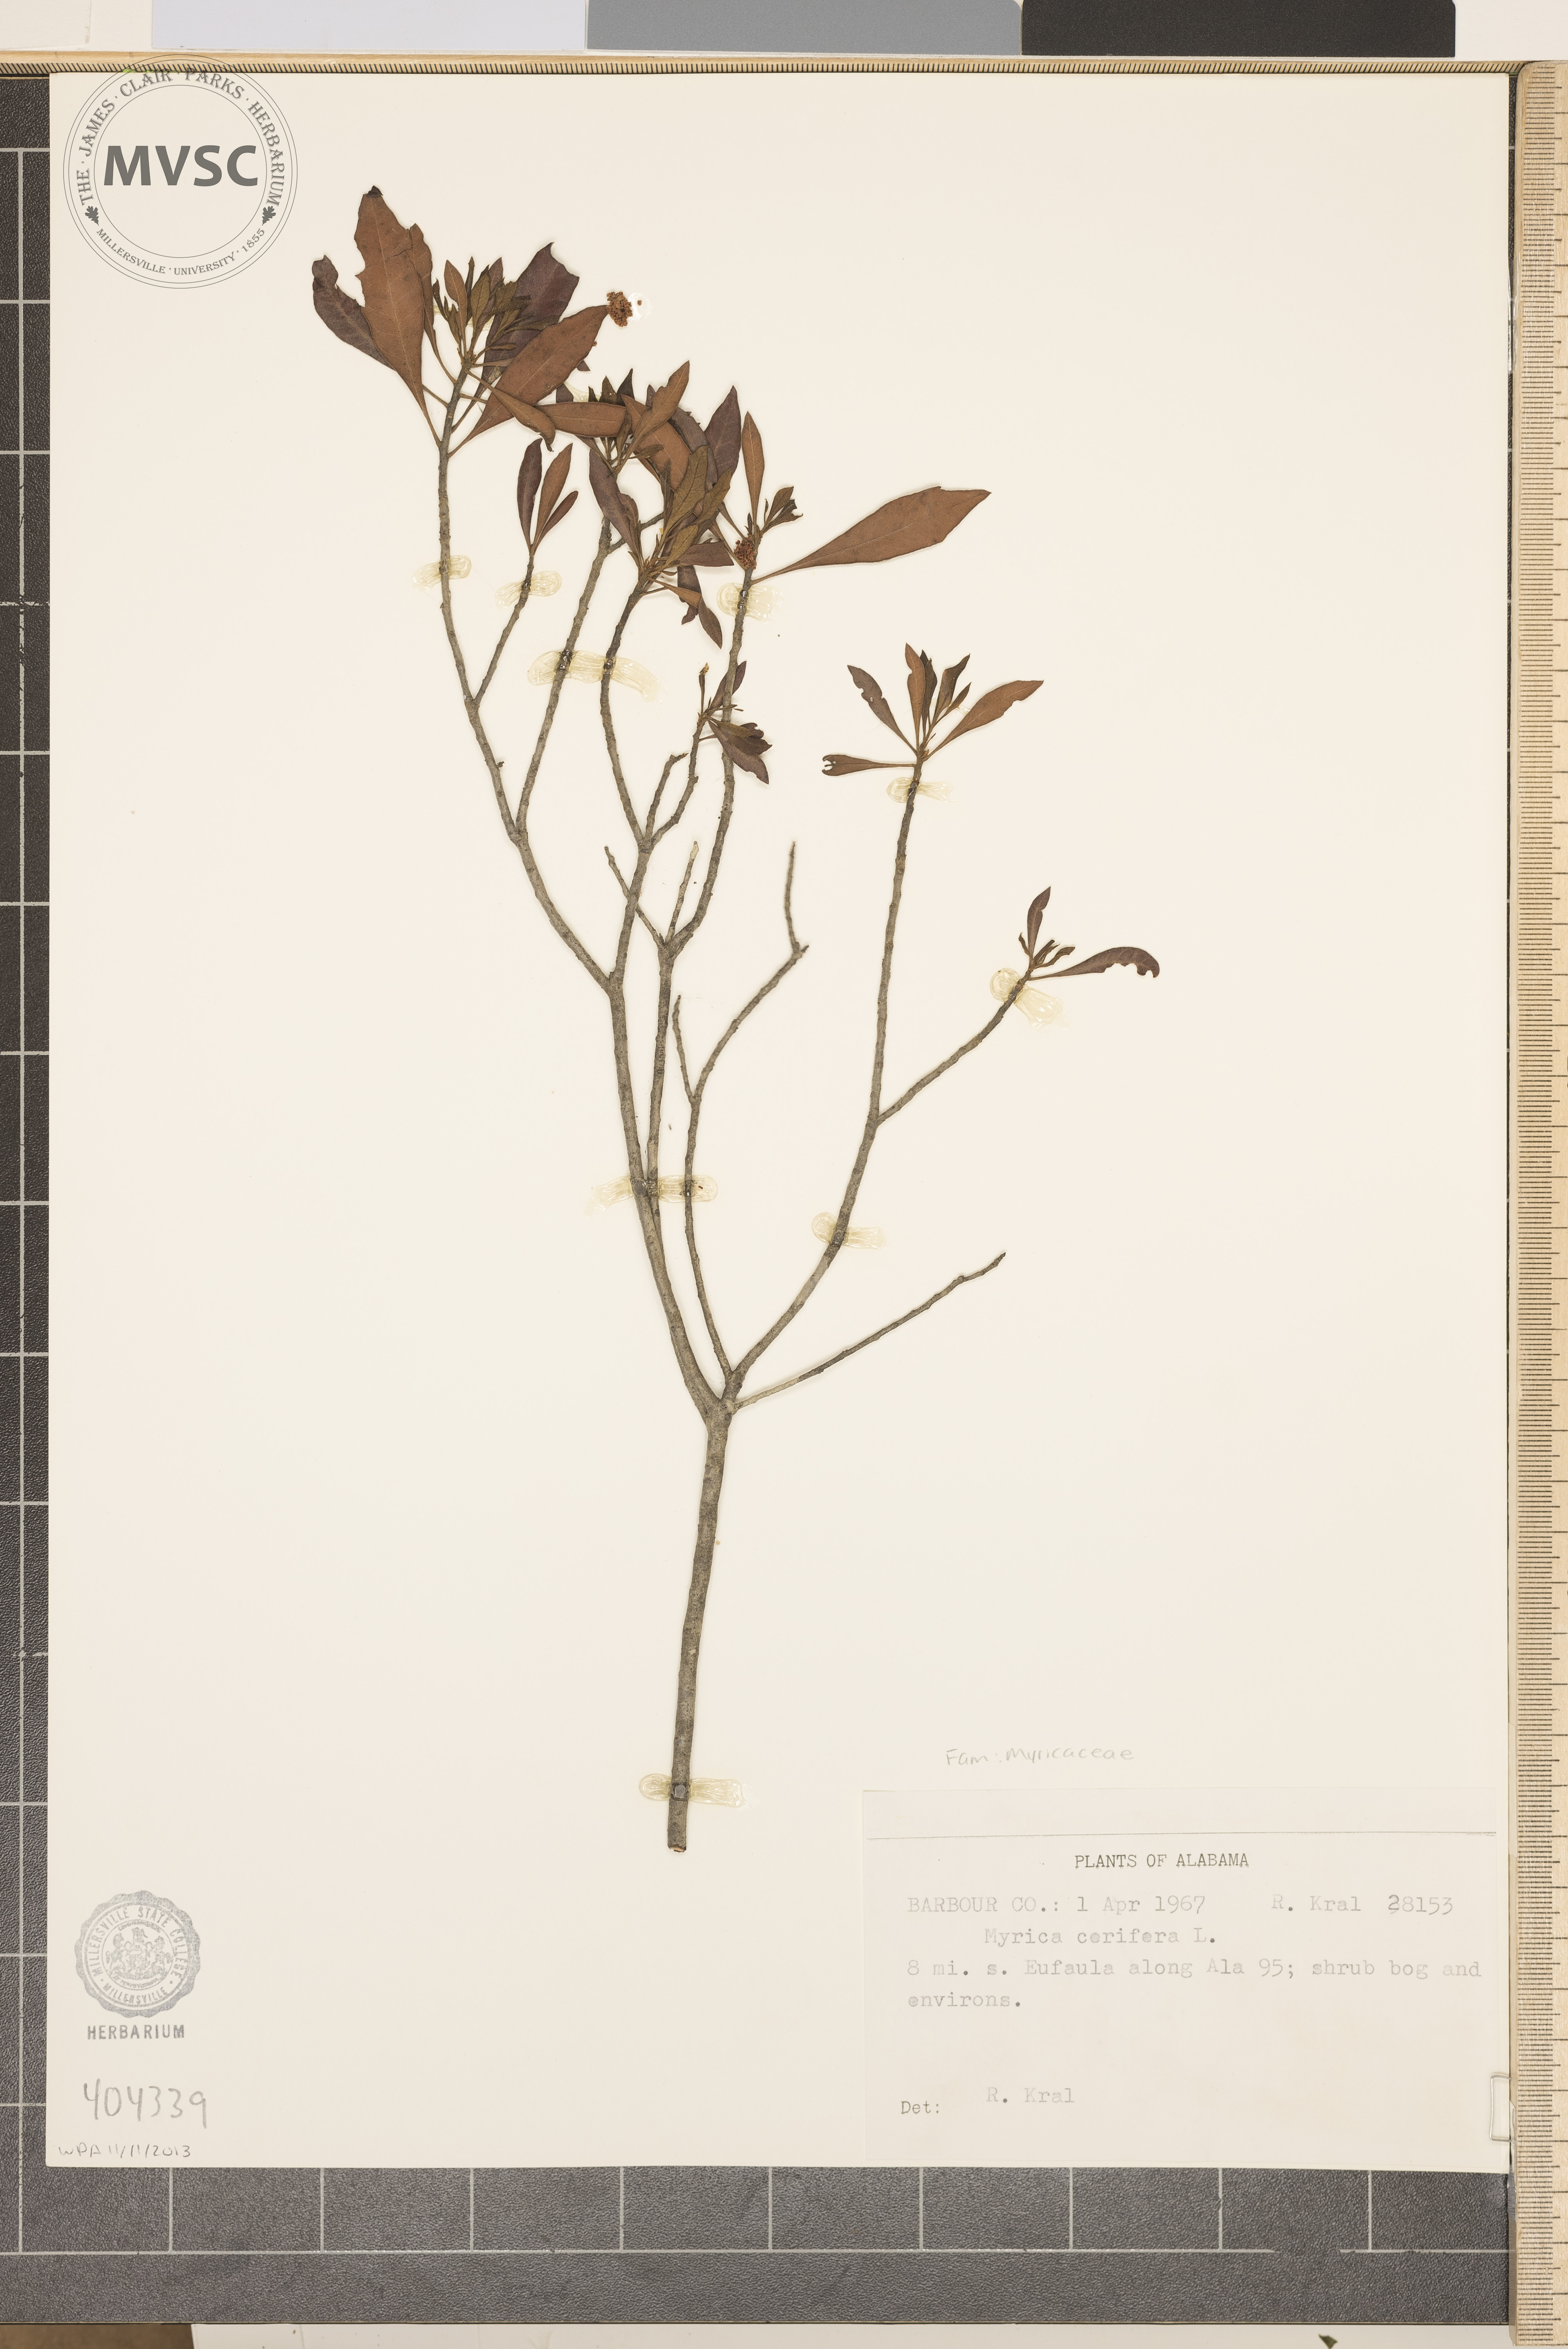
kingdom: Plantae
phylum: Tracheophyta
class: Magnoliopsida
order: Fagales
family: Myricaceae
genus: Myrica
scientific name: Myrica cerifera
